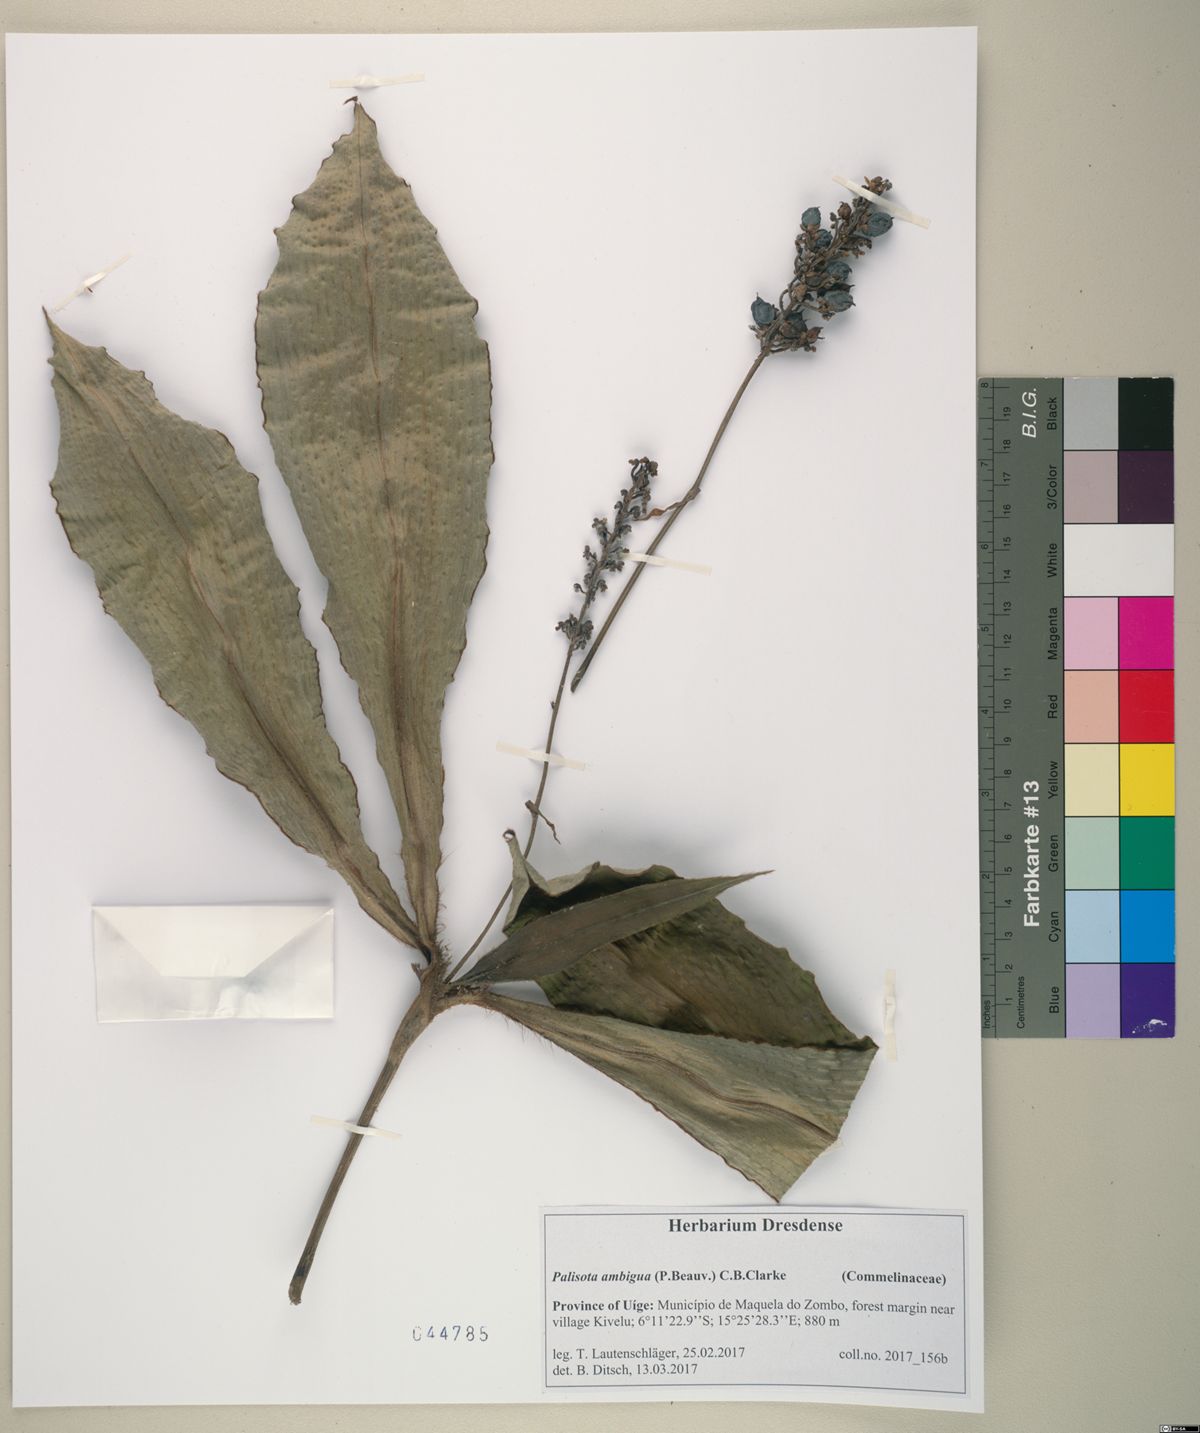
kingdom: Plantae
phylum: Tracheophyta
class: Liliopsida
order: Commelinales
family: Commelinaceae
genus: Palisota
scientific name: Palisota ambigua
